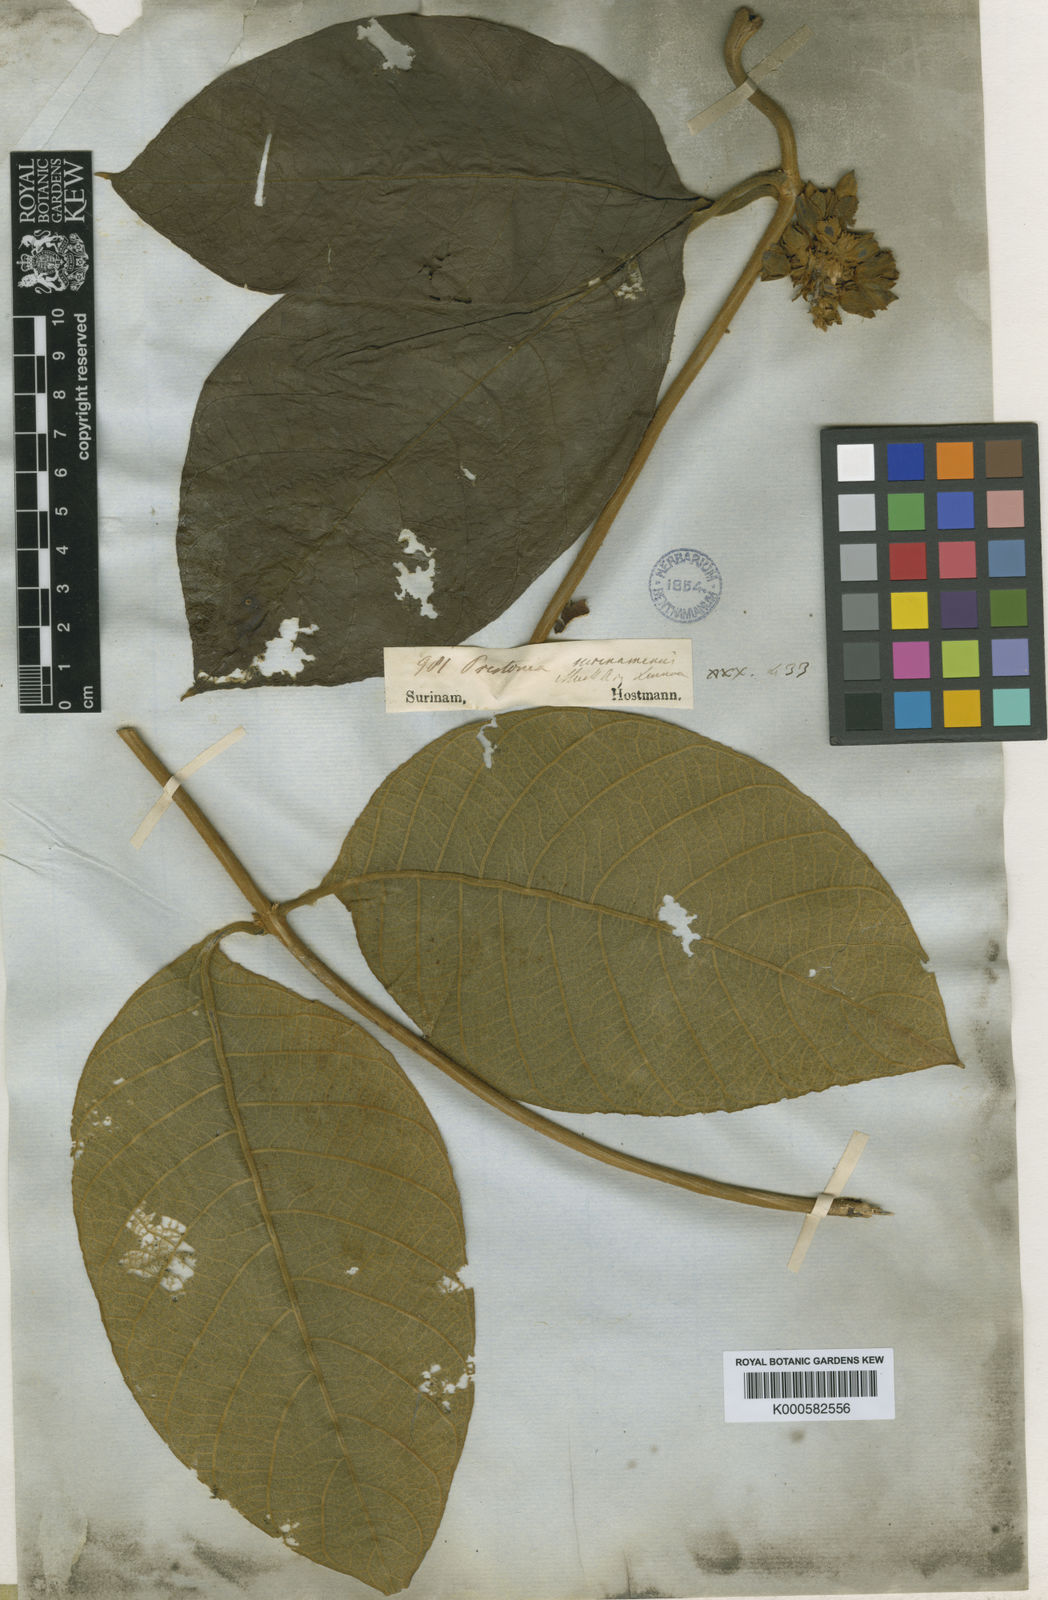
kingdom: Plantae
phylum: Tracheophyta
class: Magnoliopsida
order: Gentianales
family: Apocynaceae
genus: Prestonia
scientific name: Prestonia
